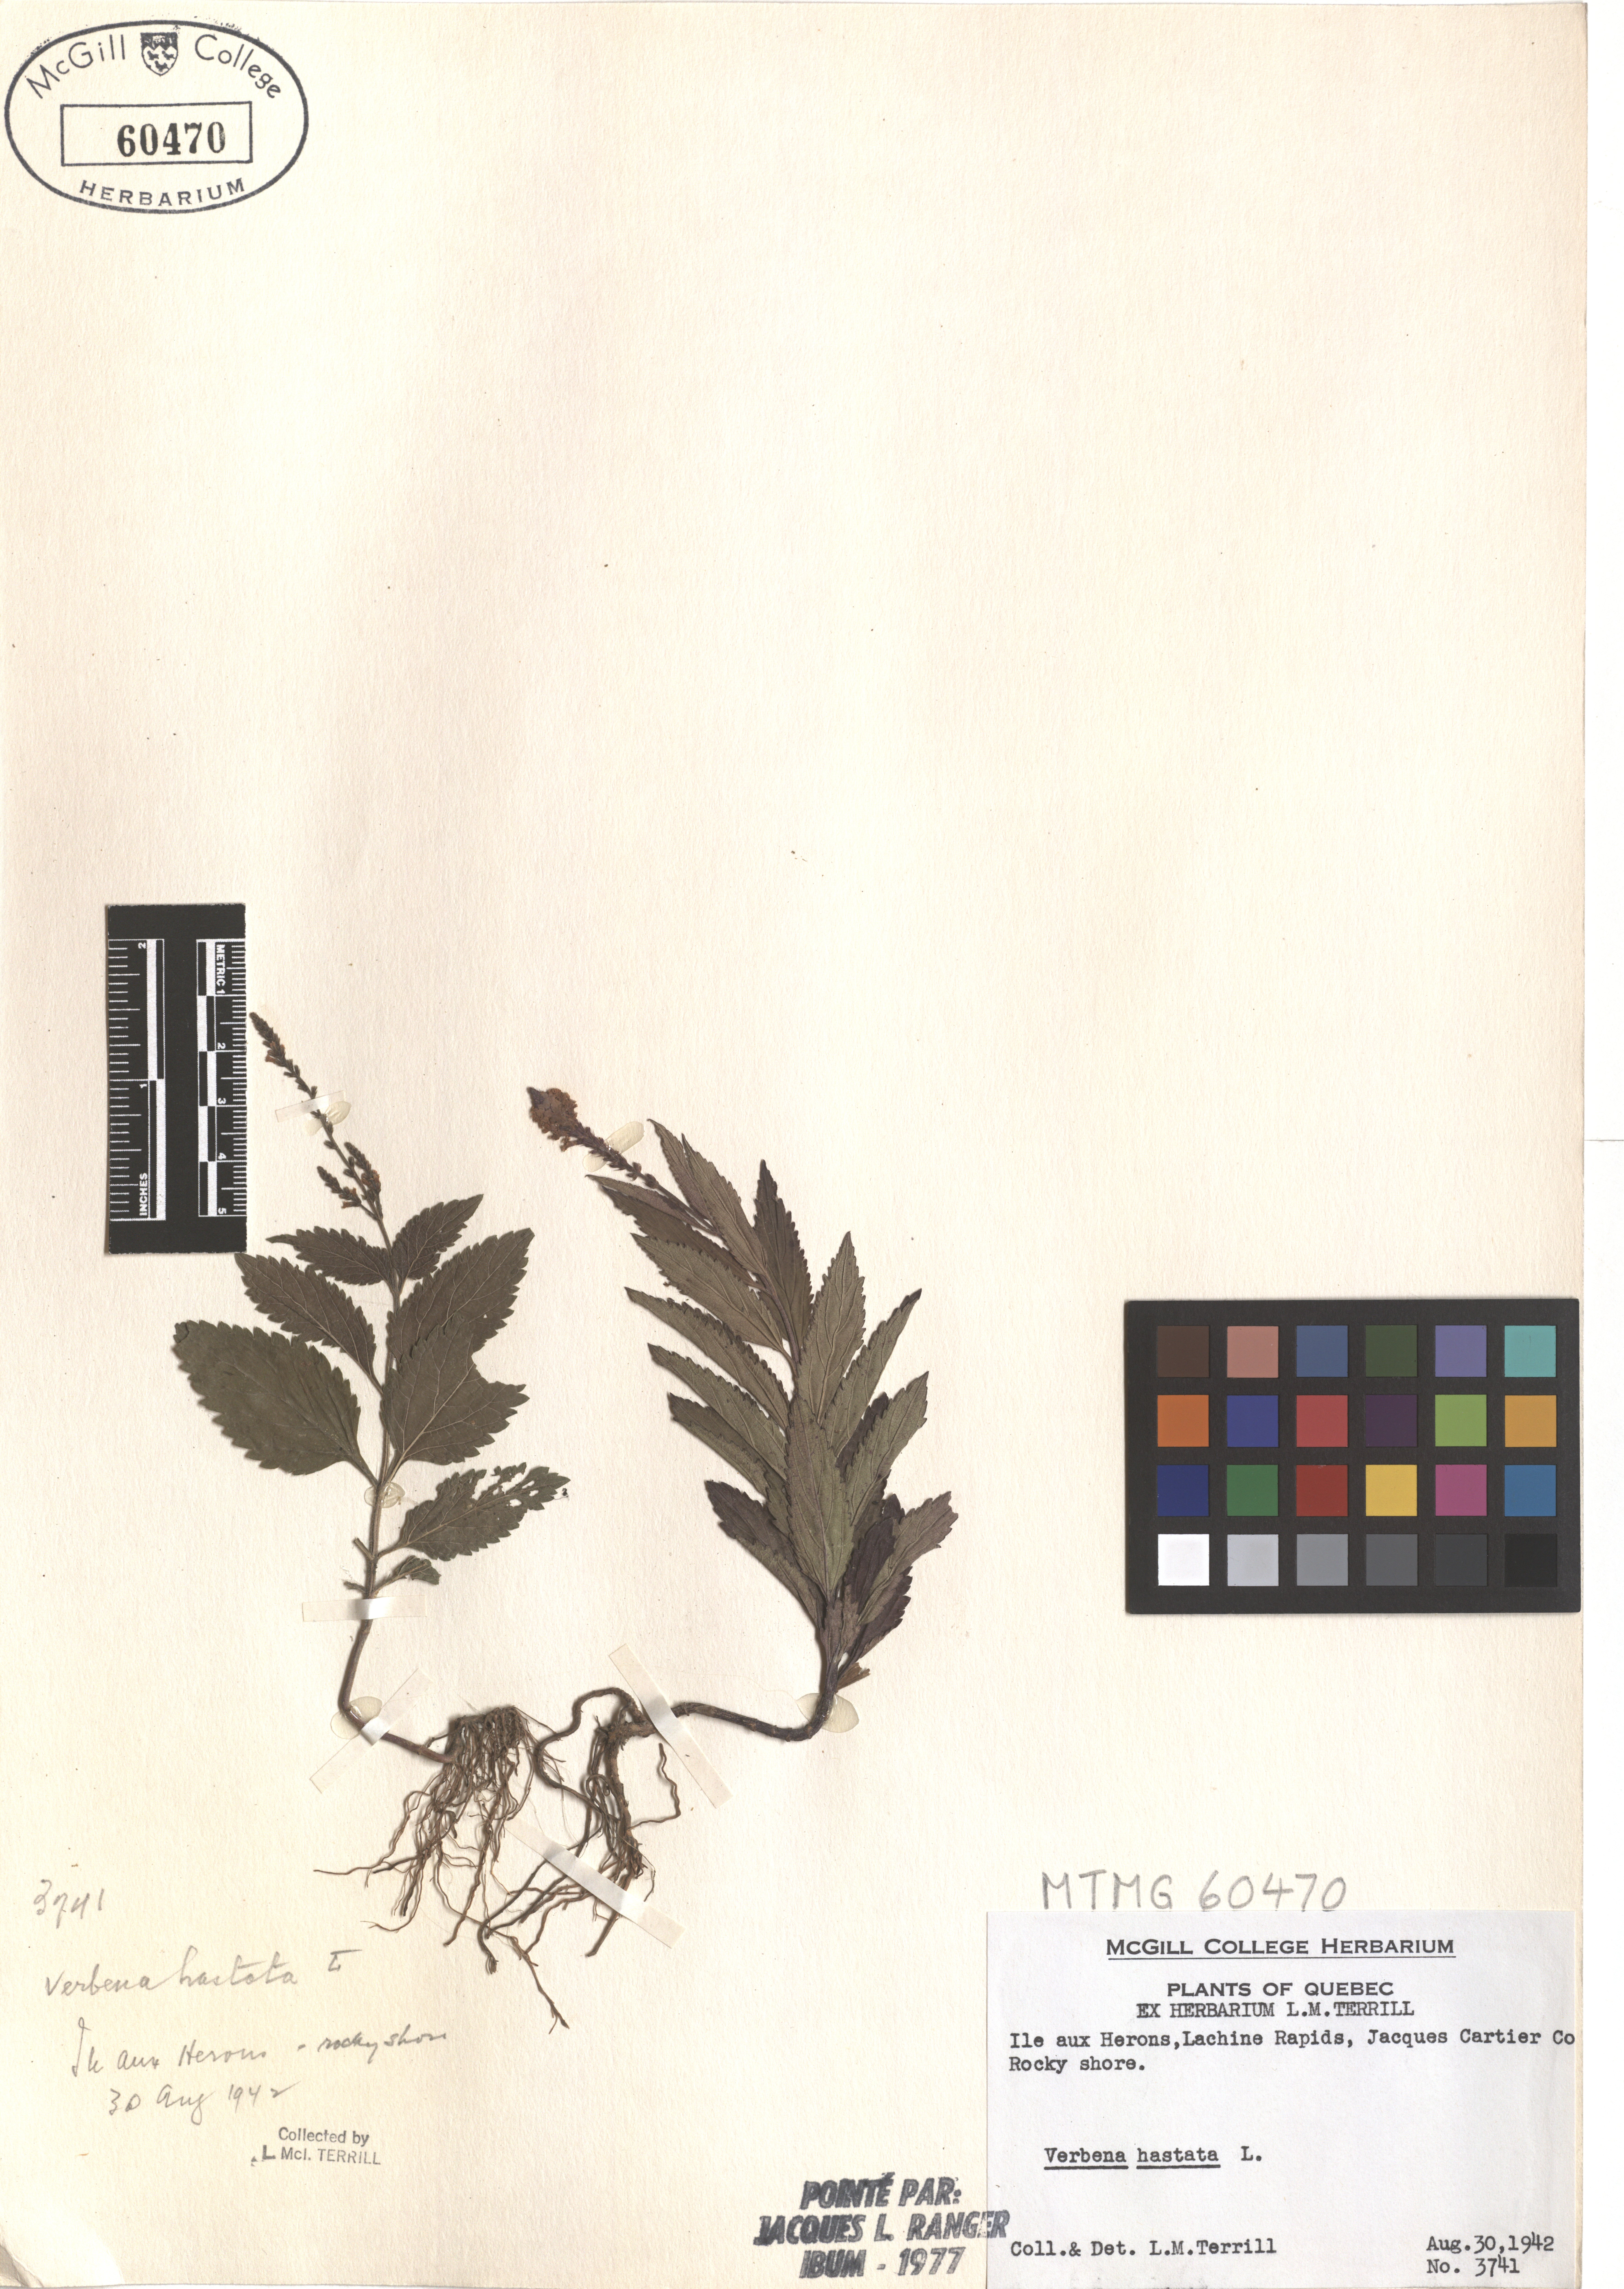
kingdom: Plantae
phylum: Tracheophyta
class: Magnoliopsida
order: Lamiales
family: Verbenaceae
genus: Verbena
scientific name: Verbena hastata
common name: American blue vervain
